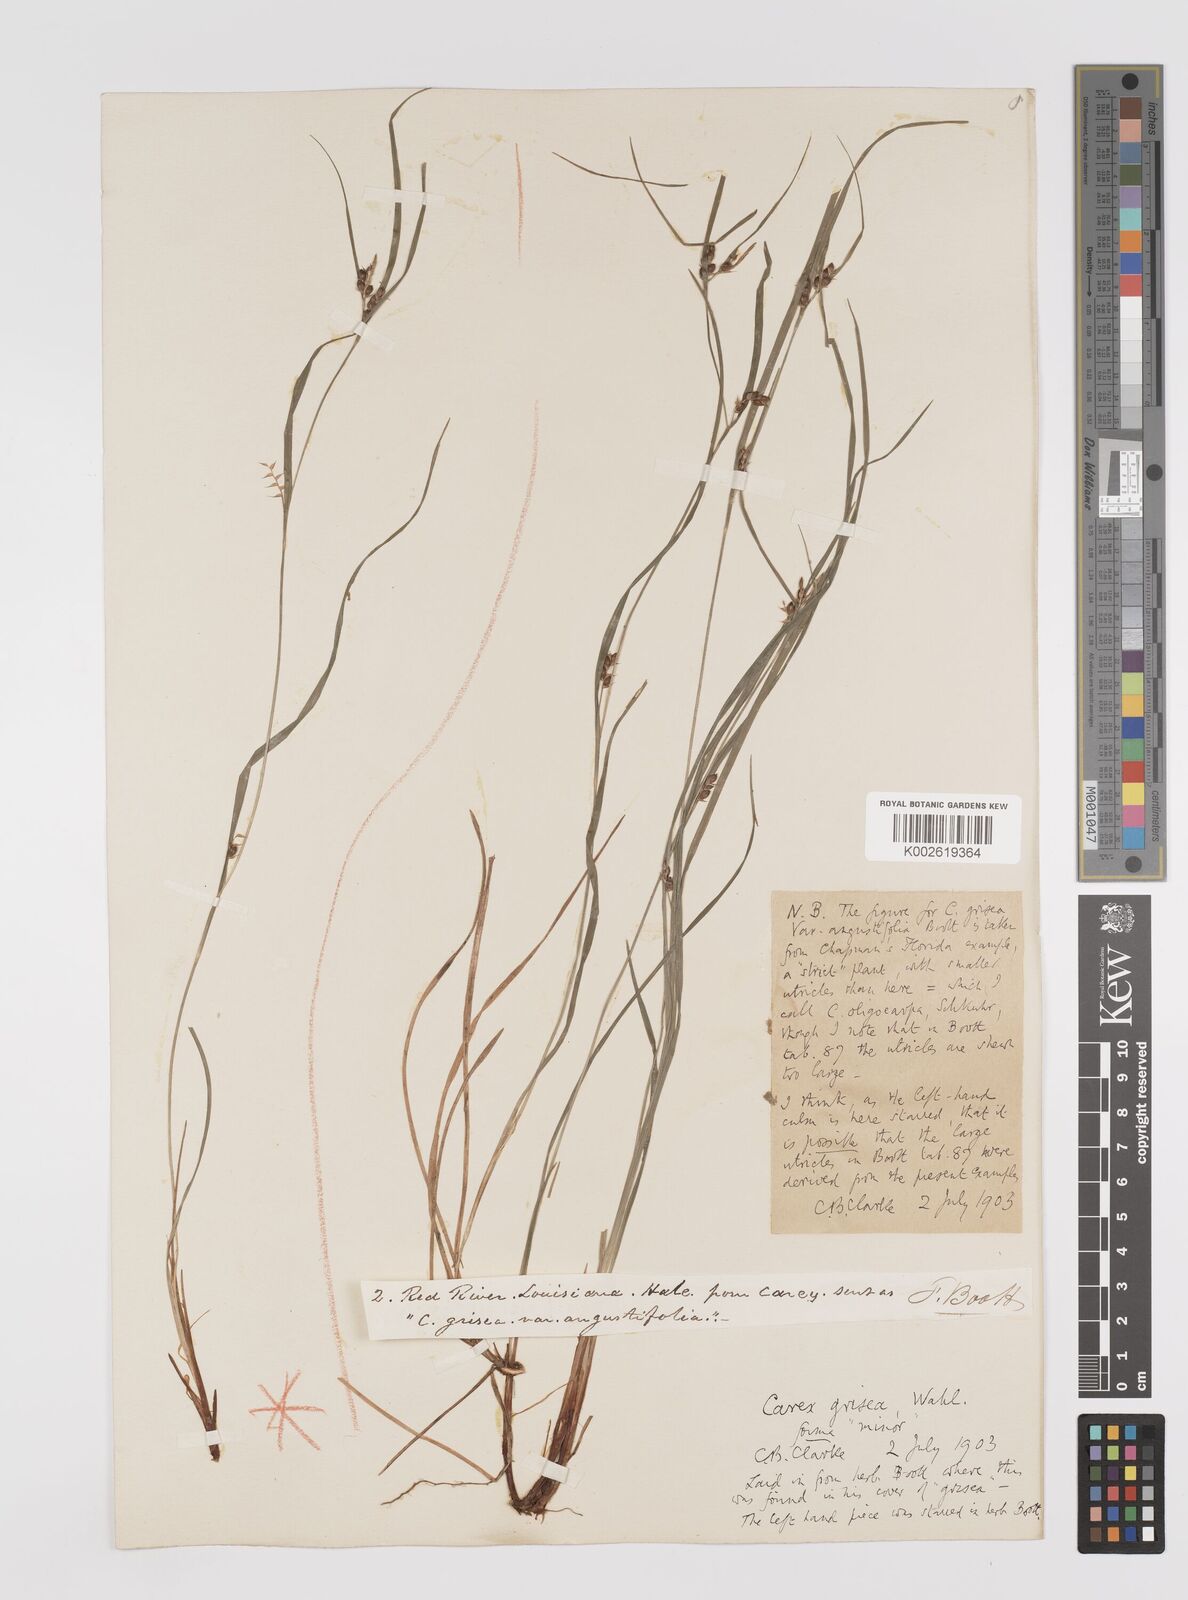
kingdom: Plantae
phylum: Tracheophyta
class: Liliopsida
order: Poales
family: Cyperaceae
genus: Carex
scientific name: Carex grisea
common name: Eastern narrow-leaved sedge
